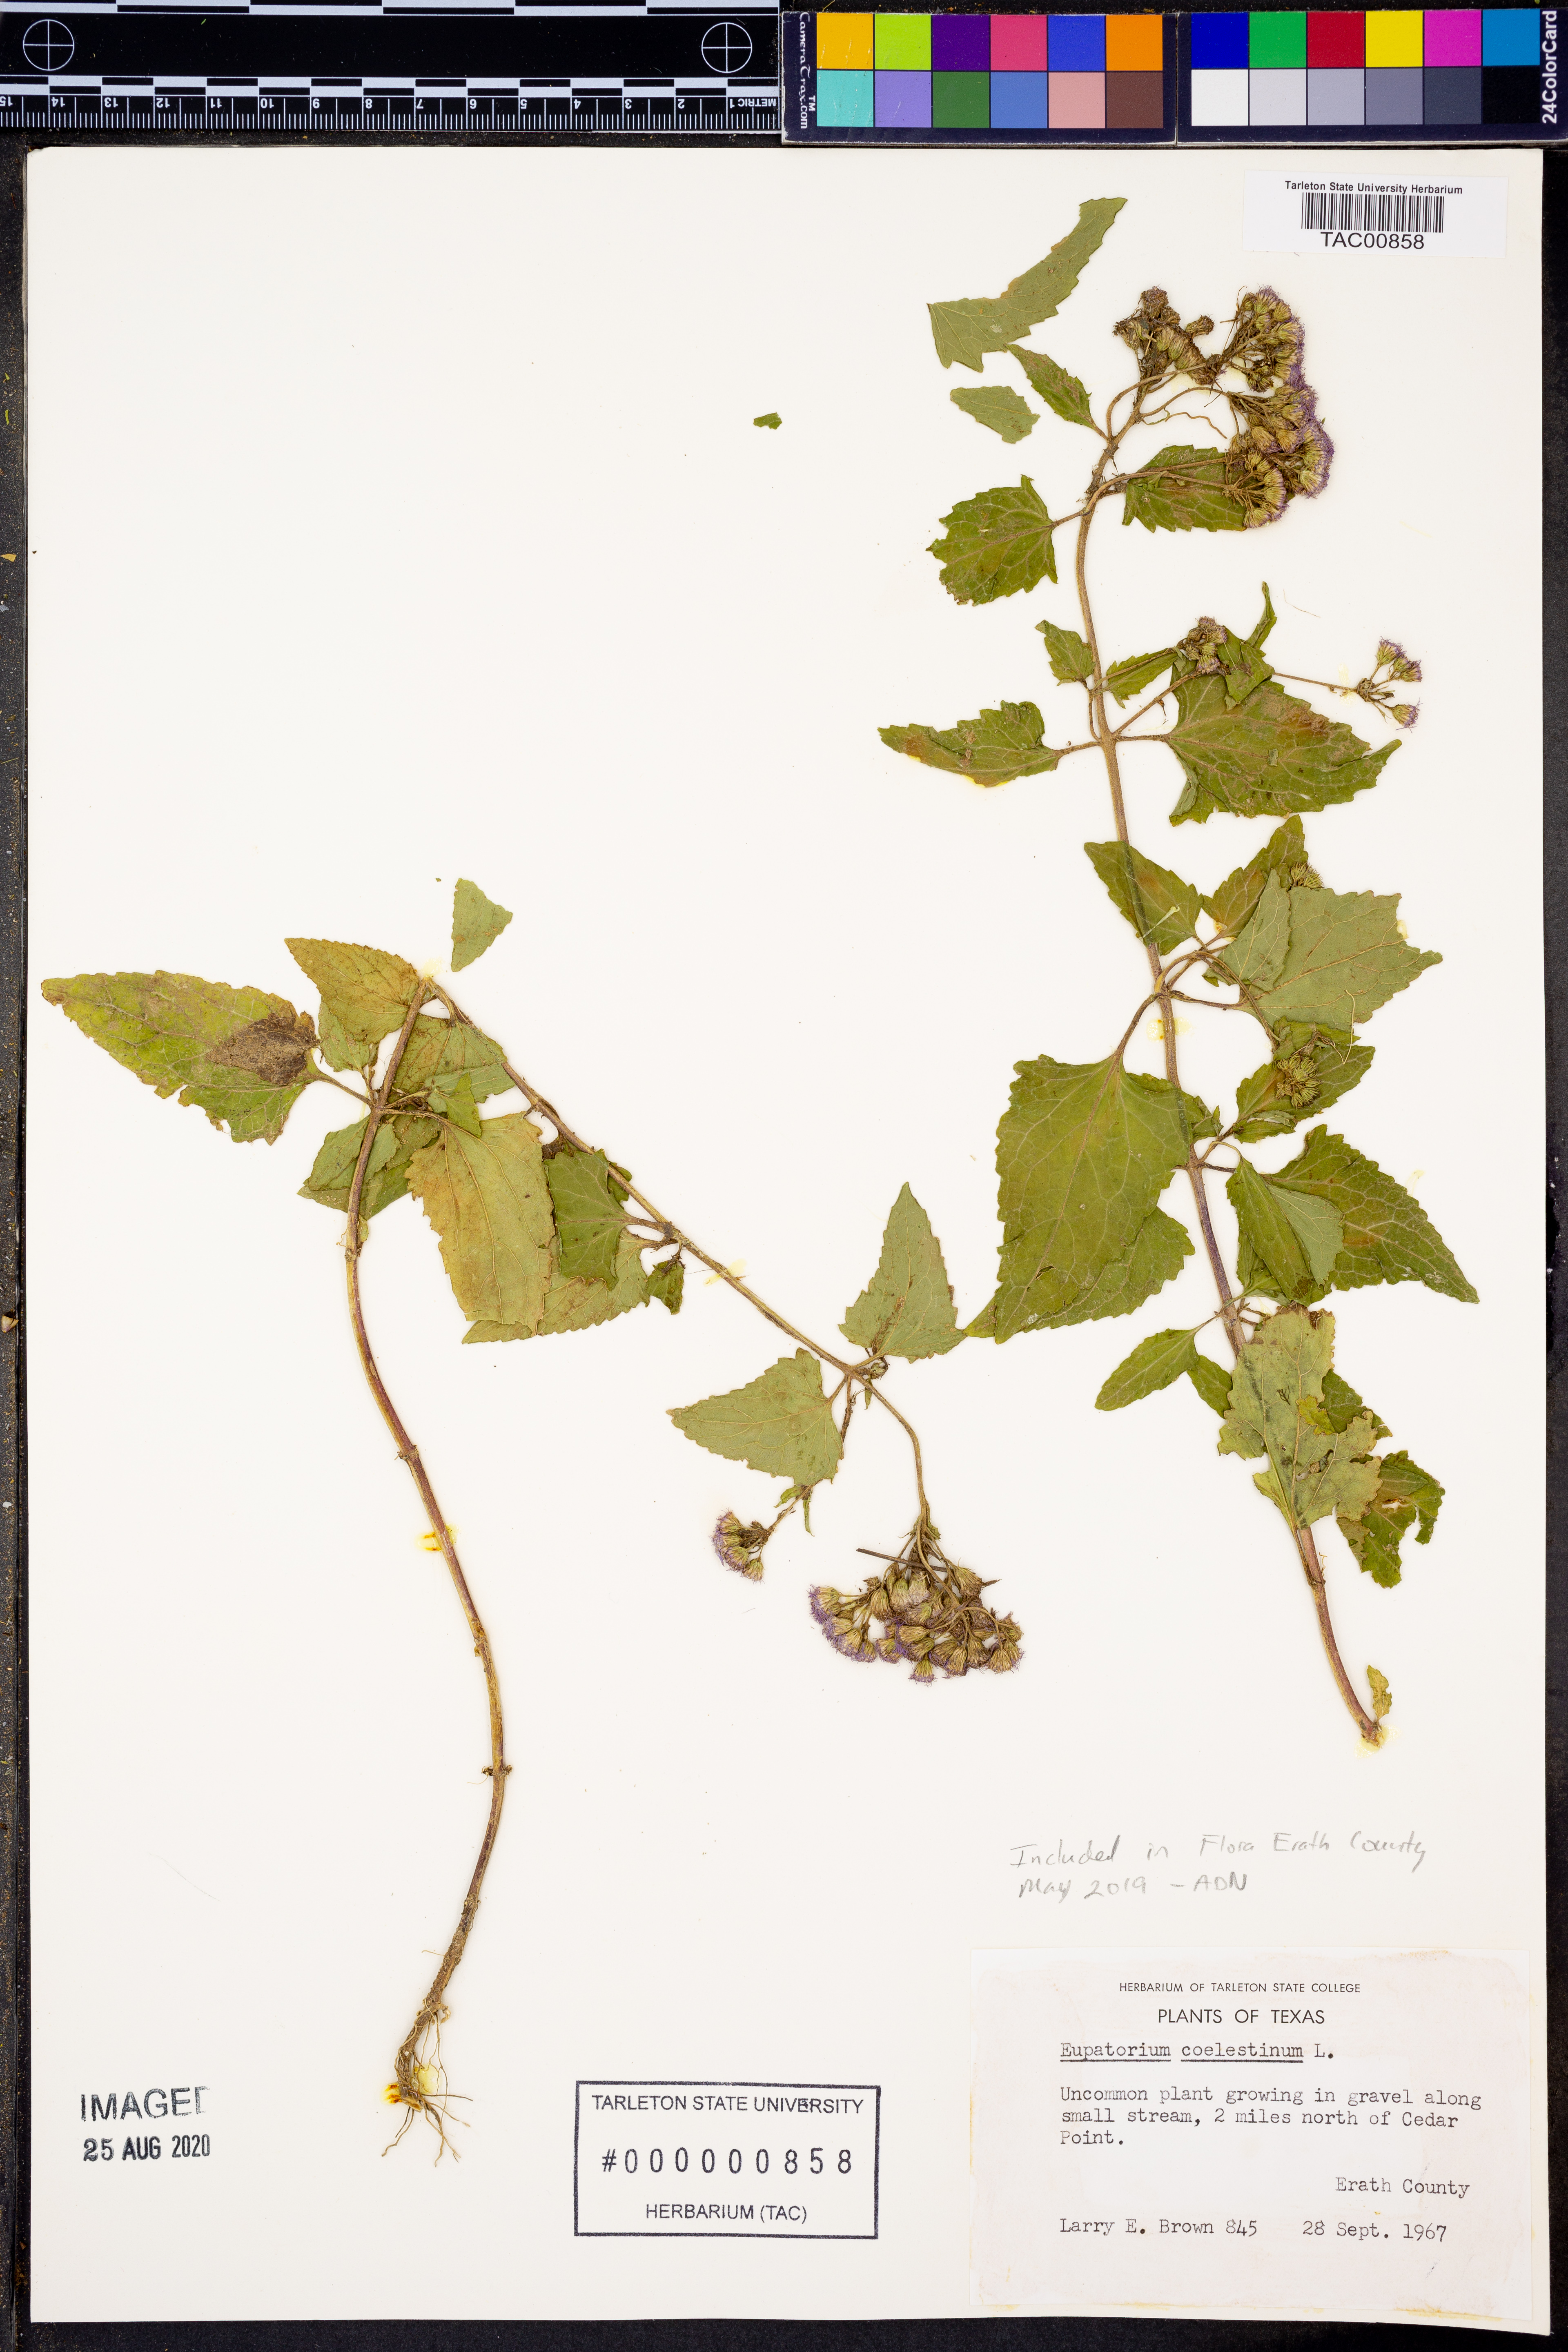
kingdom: Plantae
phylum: Tracheophyta
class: Magnoliopsida
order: Asterales
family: Asteraceae
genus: Conoclinium
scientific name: Conoclinium coelestinum
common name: Blue mistflower
